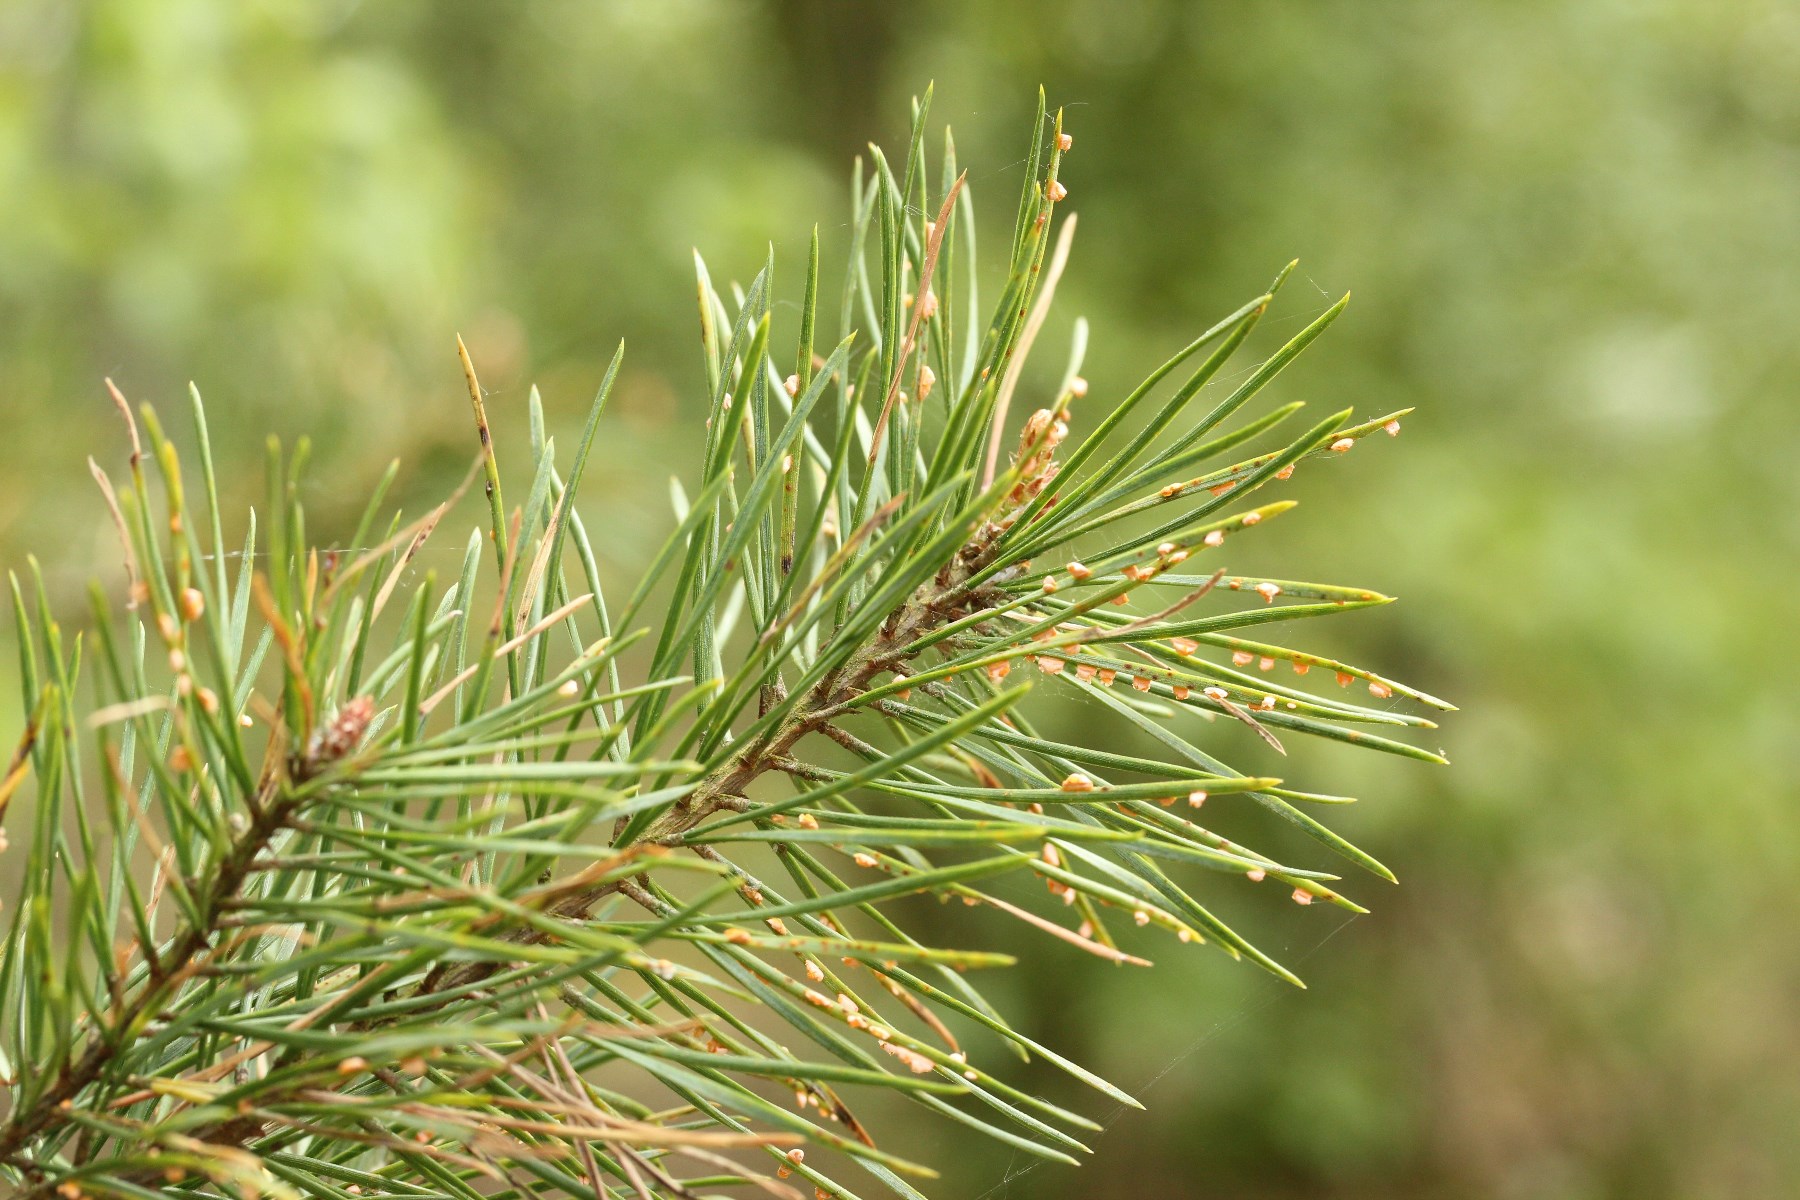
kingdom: Fungi
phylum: Basidiomycota
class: Pucciniomycetes
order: Pucciniales
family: Coleosporiaceae
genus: Coleosporium
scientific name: Coleosporium tussilaginis
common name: almindelig fyrrenålerust
